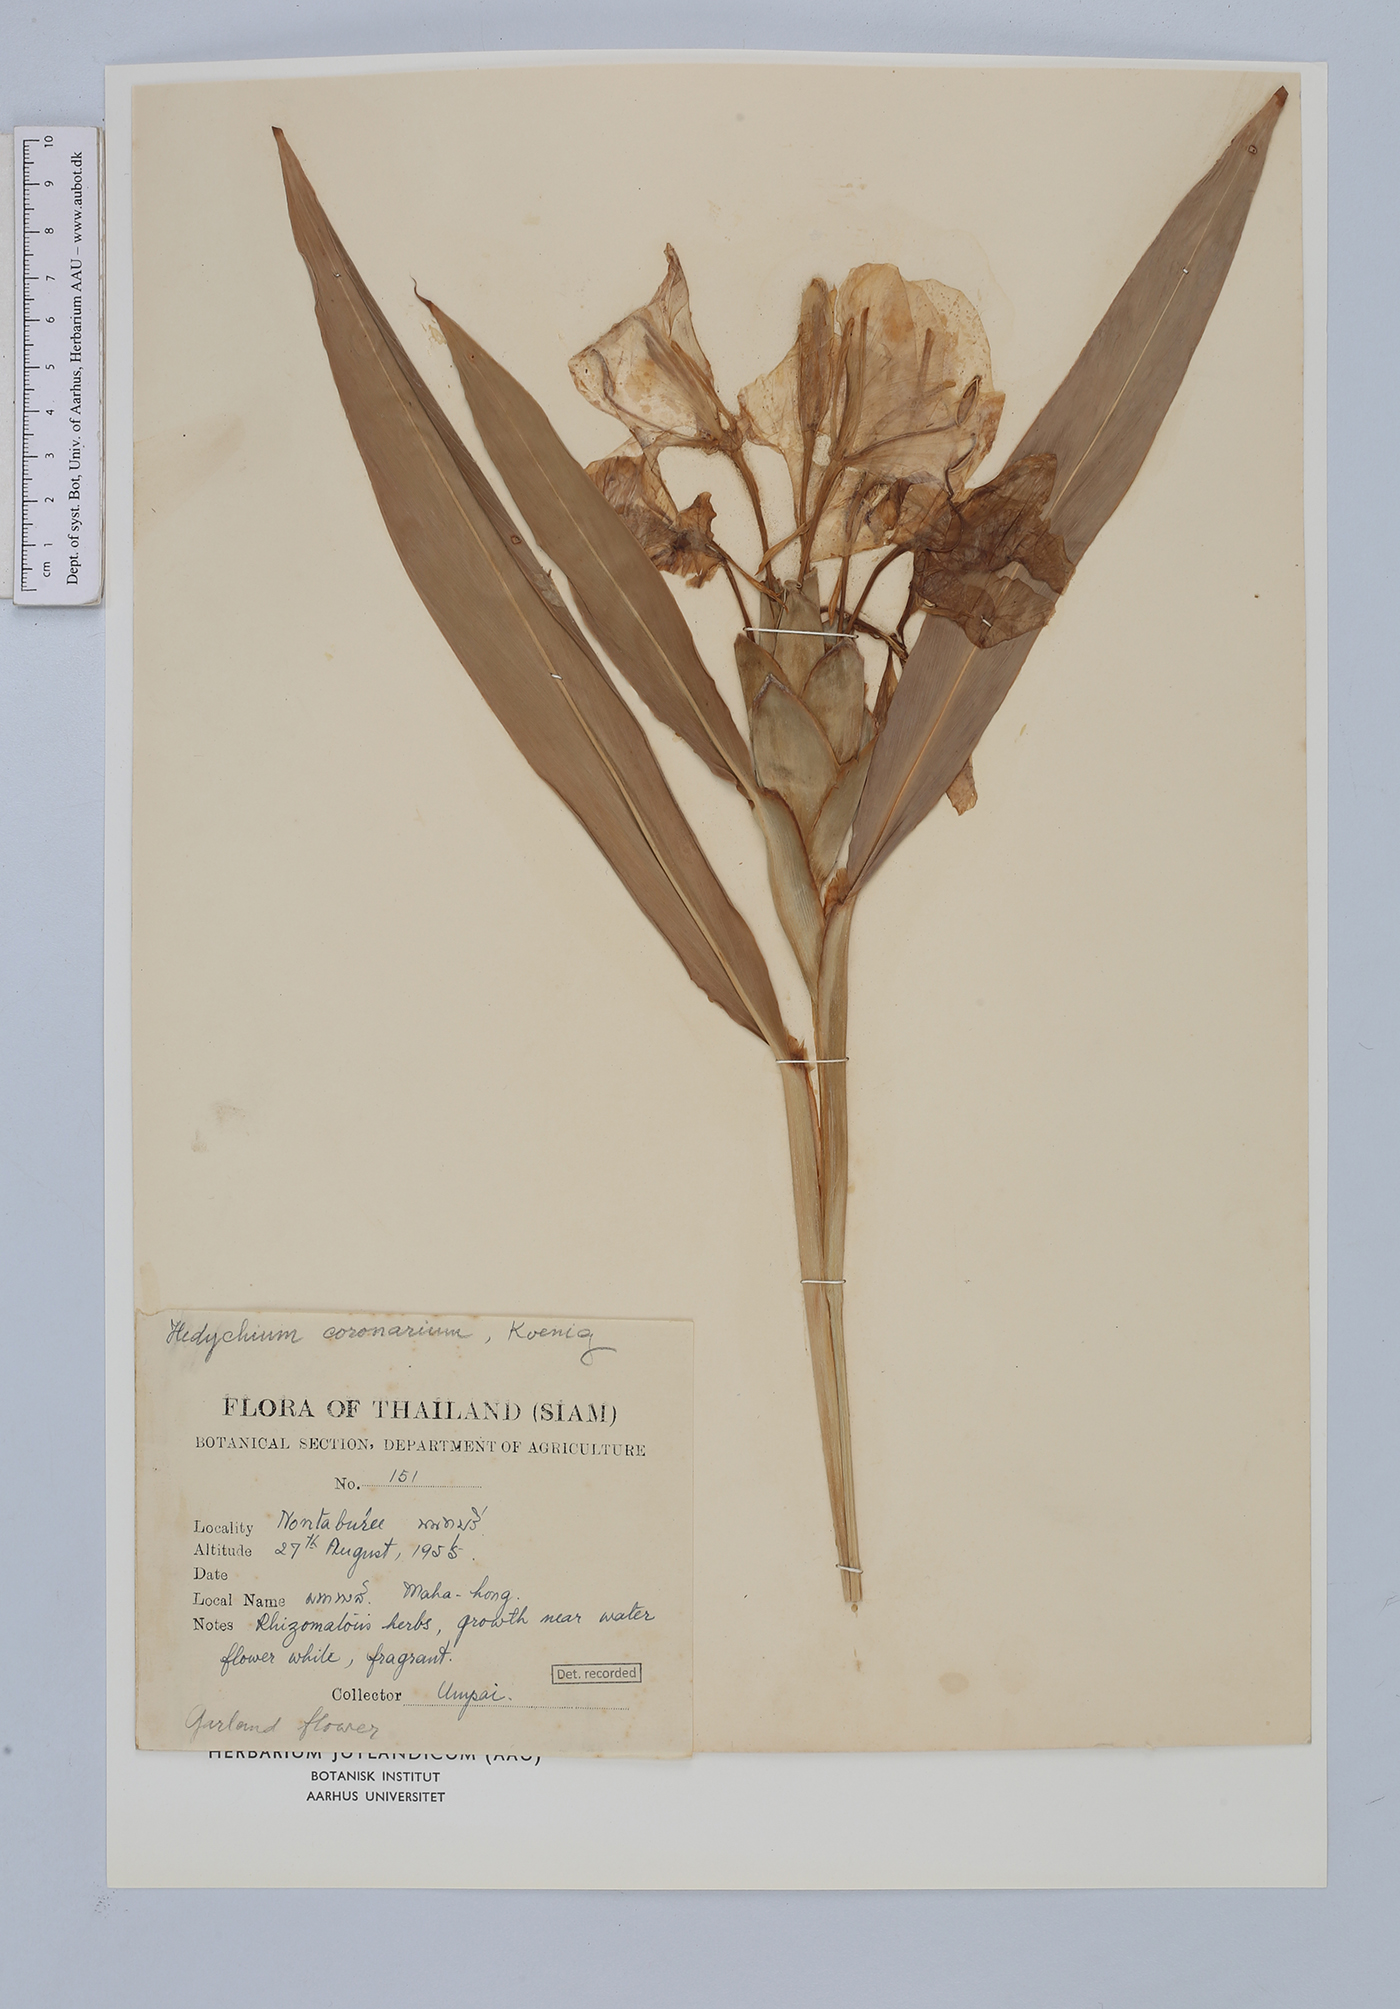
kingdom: Plantae
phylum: Tracheophyta
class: Liliopsida
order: Zingiberales
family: Zingiberaceae
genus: Hedychium
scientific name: Hedychium coronarium
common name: White garland-lily
